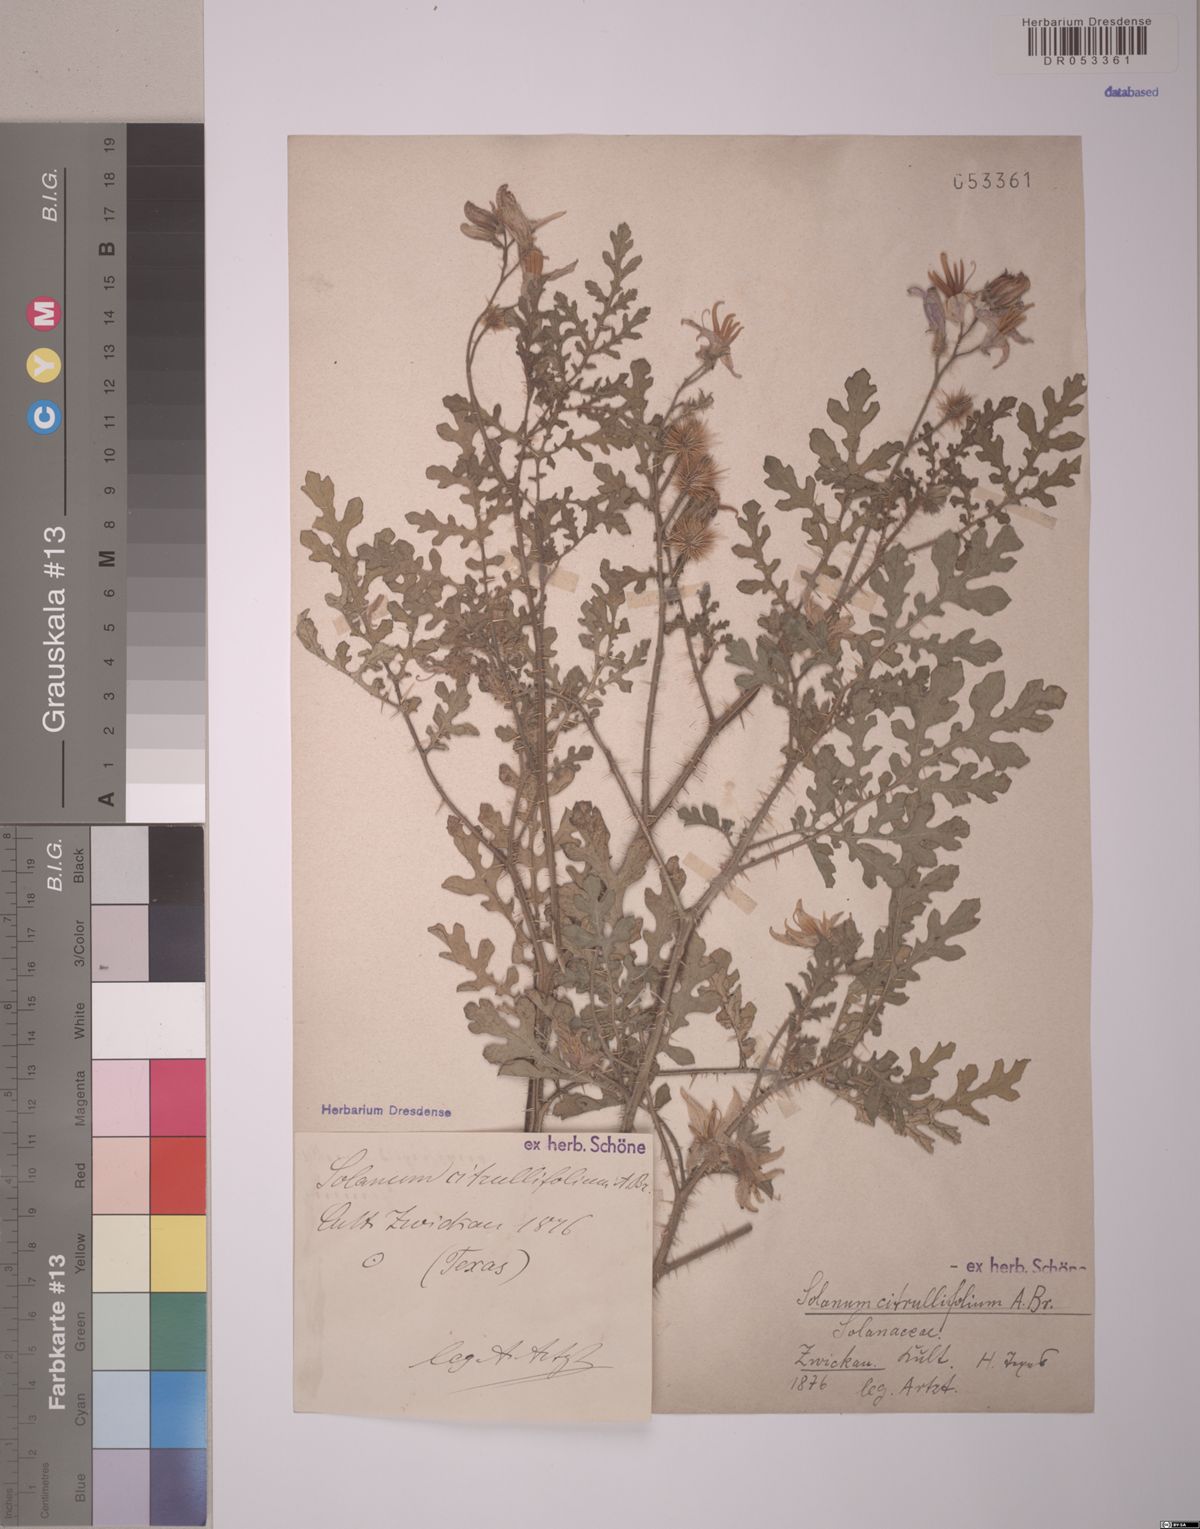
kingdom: Plantae
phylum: Tracheophyta
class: Magnoliopsida
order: Solanales
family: Solanaceae
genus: Solanum
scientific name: Solanum citrullifolium
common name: Melon-leaf nightshade
